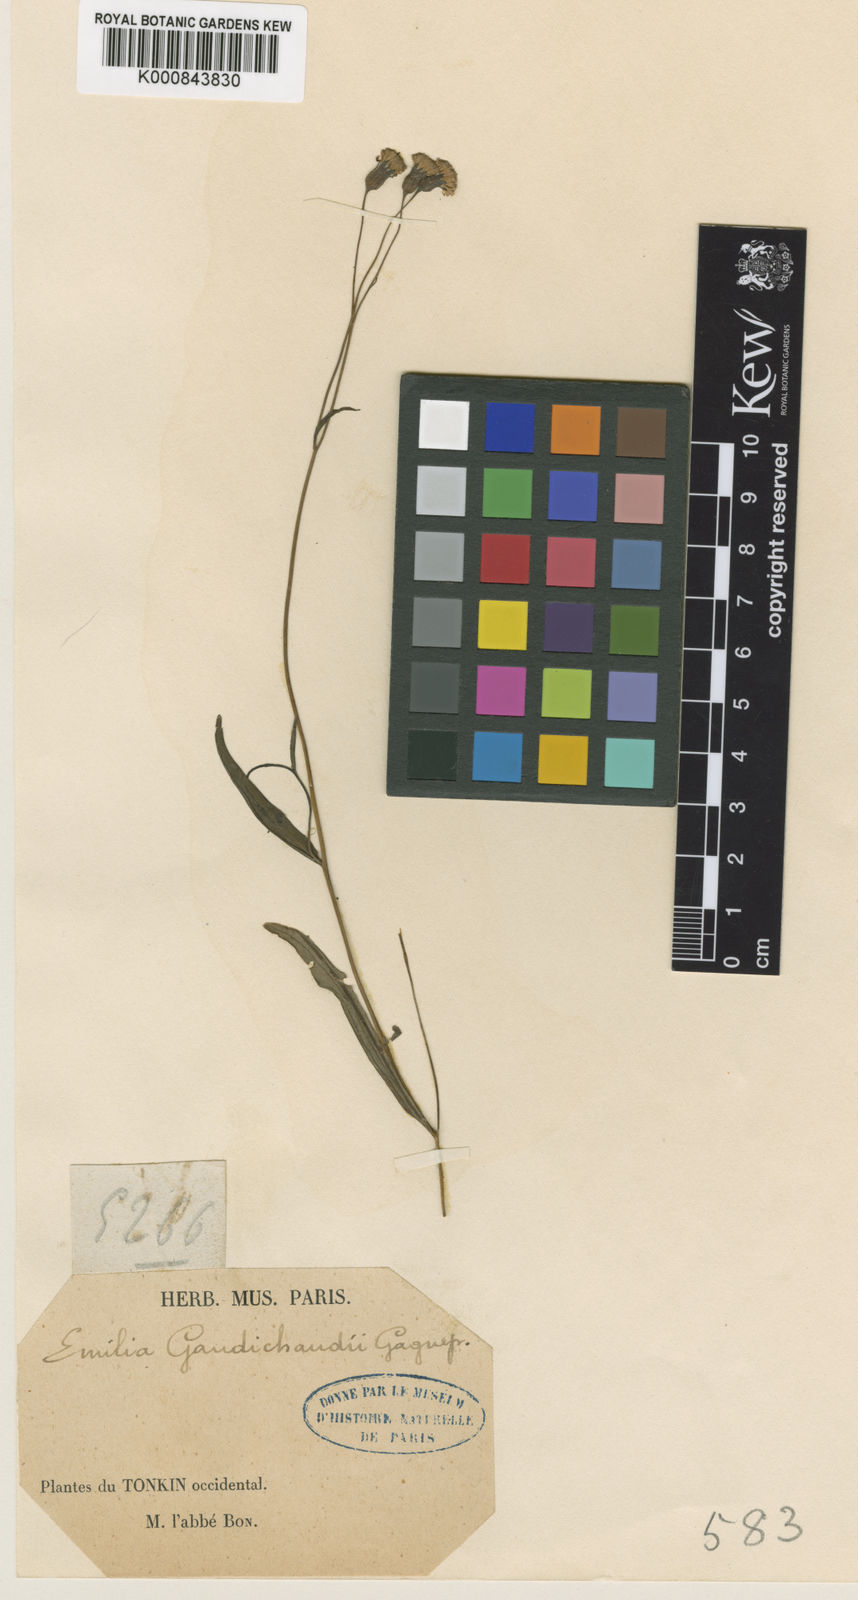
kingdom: Plantae
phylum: Tracheophyta
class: Magnoliopsida
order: Asterales
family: Asteraceae
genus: Emilia
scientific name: Emilia gaudichaudii
